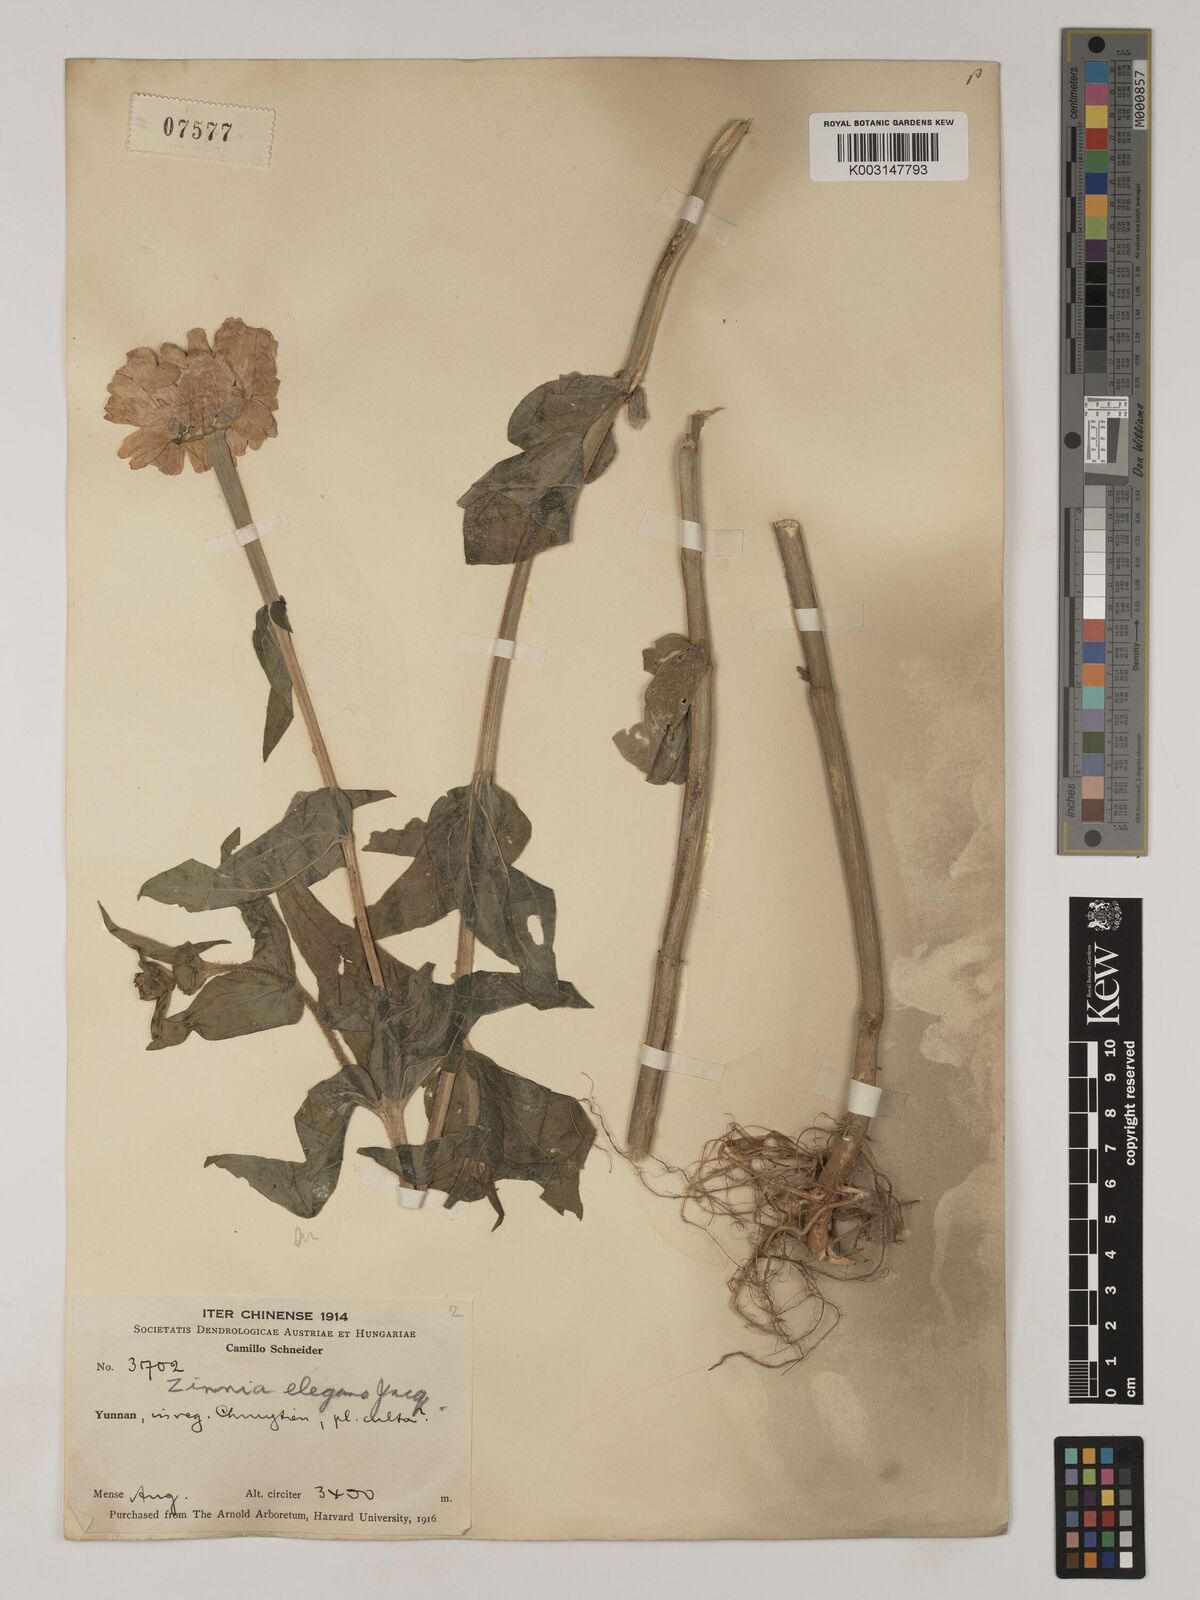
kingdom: Plantae
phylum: Tracheophyta
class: Magnoliopsida
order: Asterales
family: Asteraceae
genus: Zinnia
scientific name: Zinnia elegans
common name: Youth-and-age
